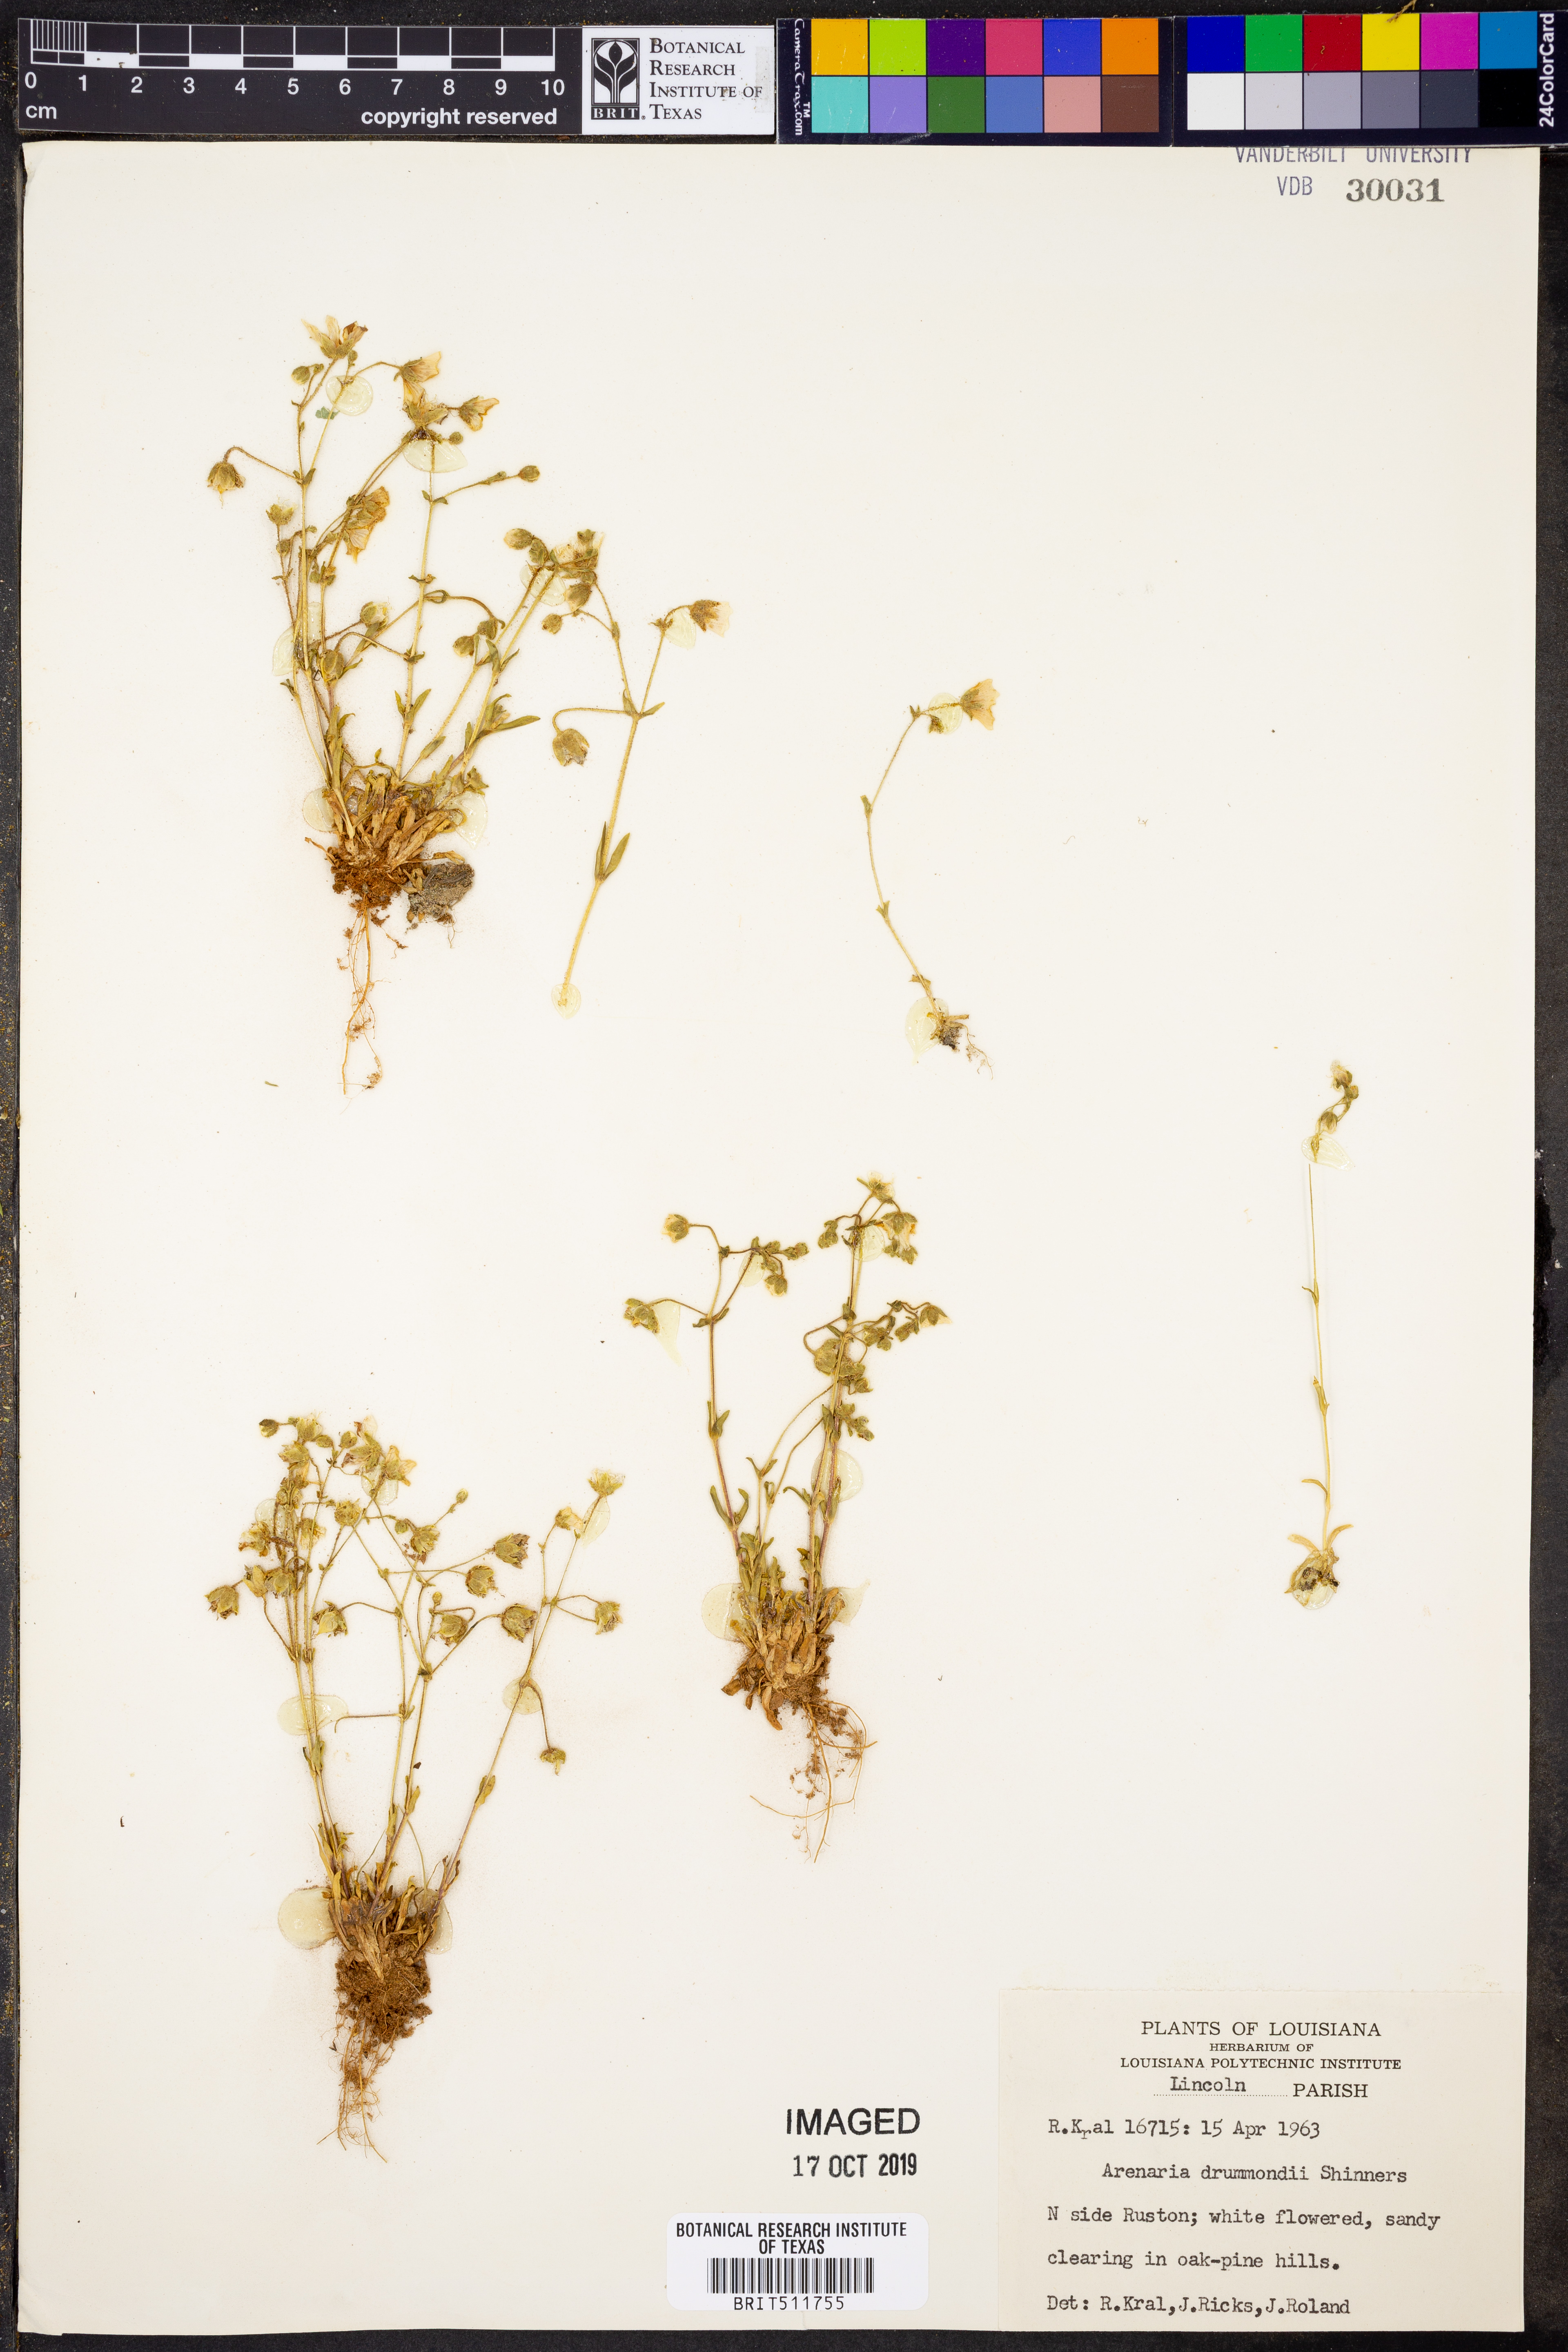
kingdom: Plantae
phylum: Tracheophyta
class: Magnoliopsida
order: Caryophyllales
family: Caryophyllaceae
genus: Geocarpon
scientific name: Geocarpon nuttallii
